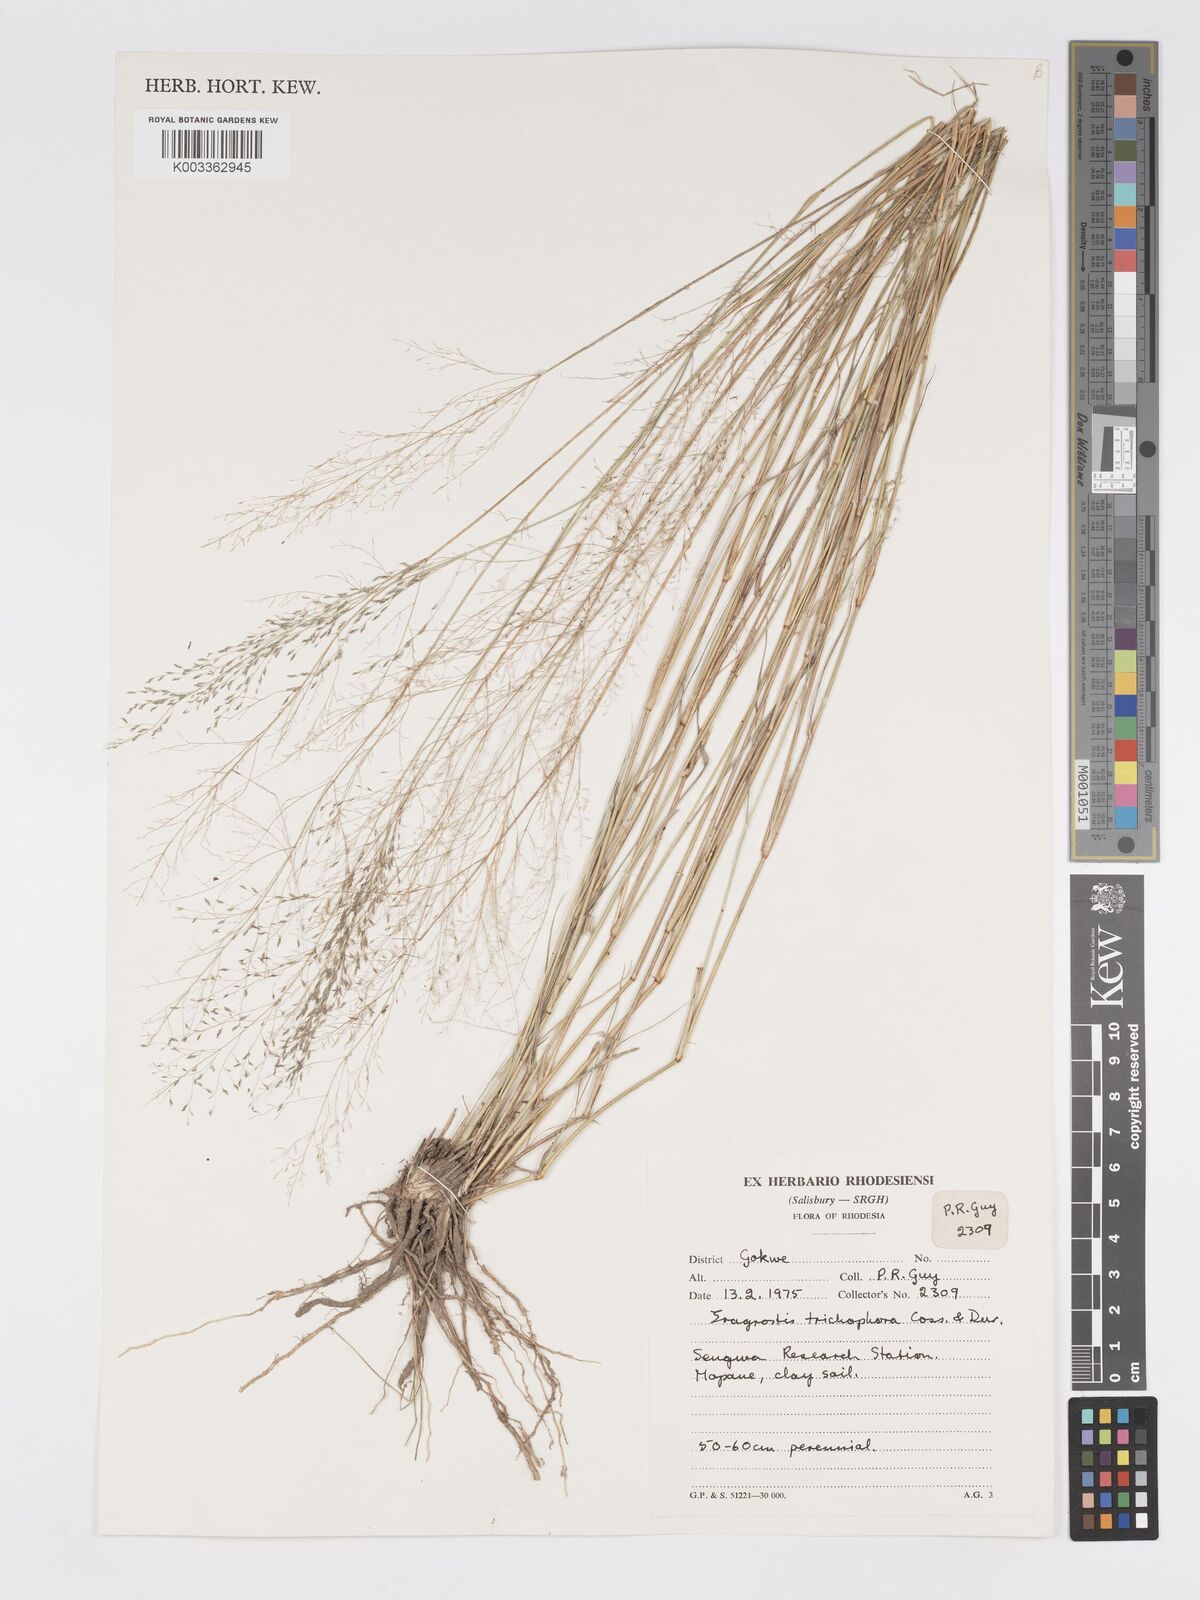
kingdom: Plantae
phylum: Tracheophyta
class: Liliopsida
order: Poales
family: Poaceae
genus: Eragrostis
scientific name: Eragrostis cylindriflora
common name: Cylinderflower lovegrass
